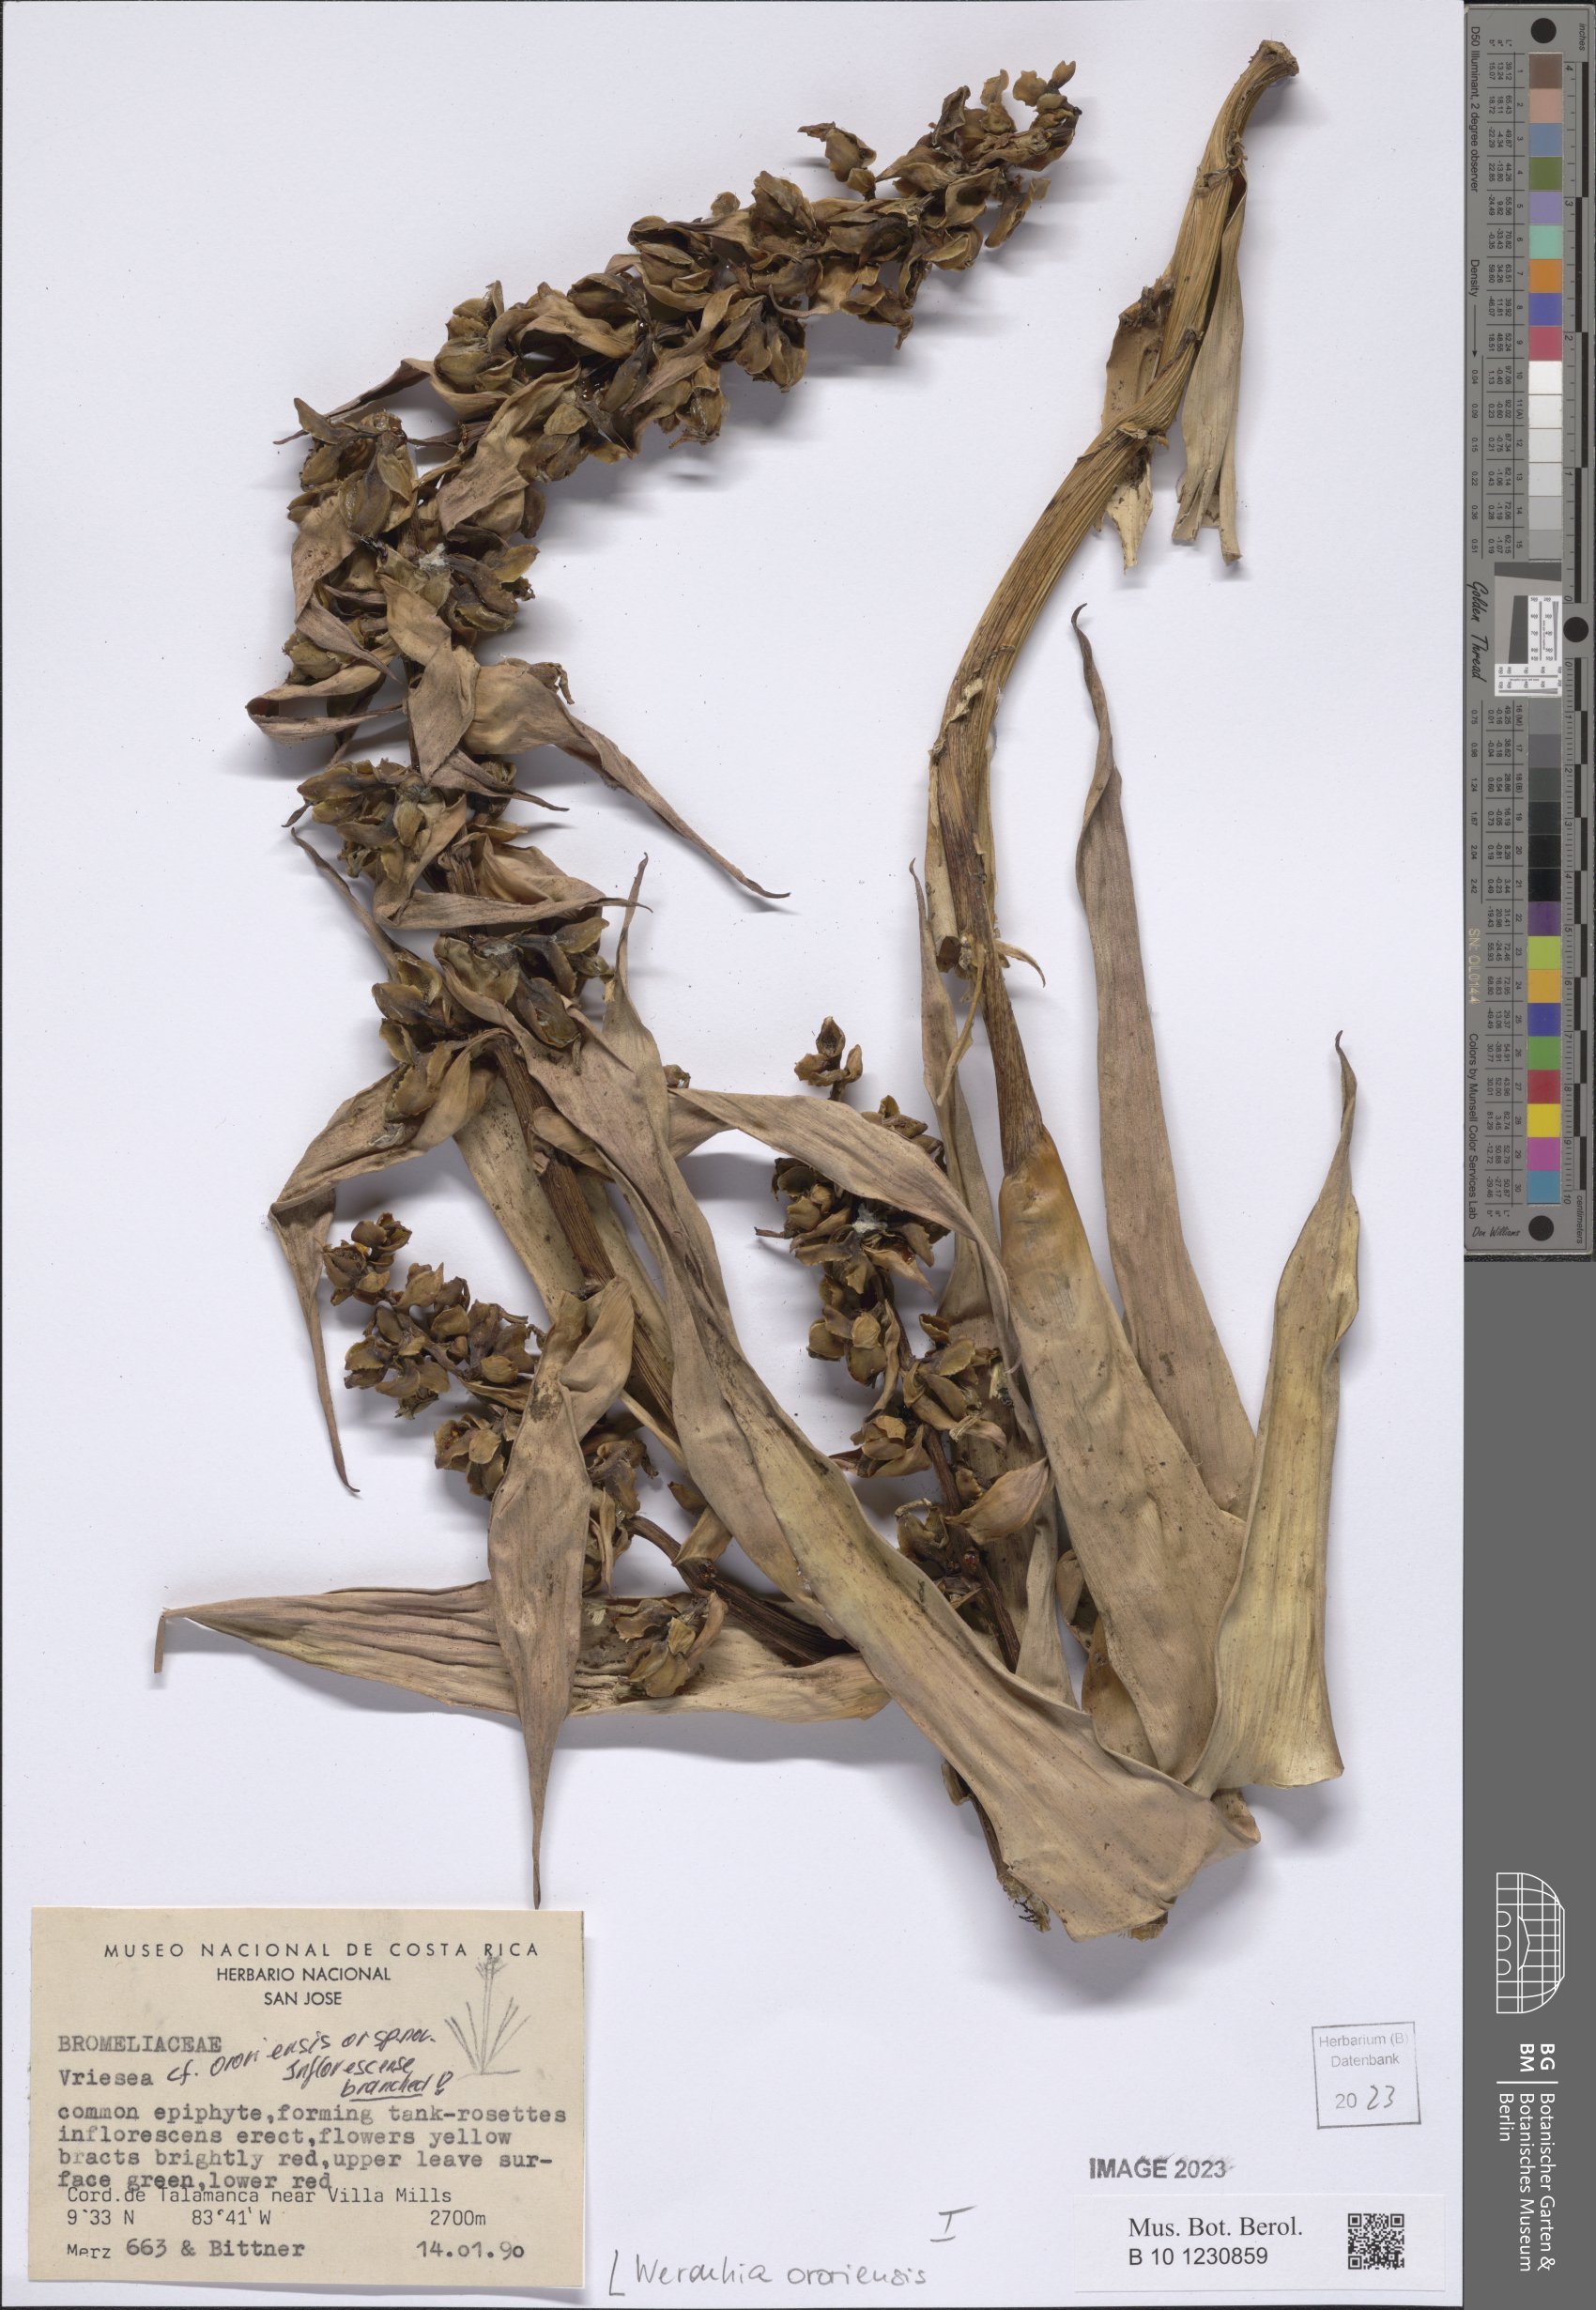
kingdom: Plantae
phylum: Tracheophyta
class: Liliopsida
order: Poales
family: Bromeliaceae
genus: Werauhia
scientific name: Werauhia ororiensis
